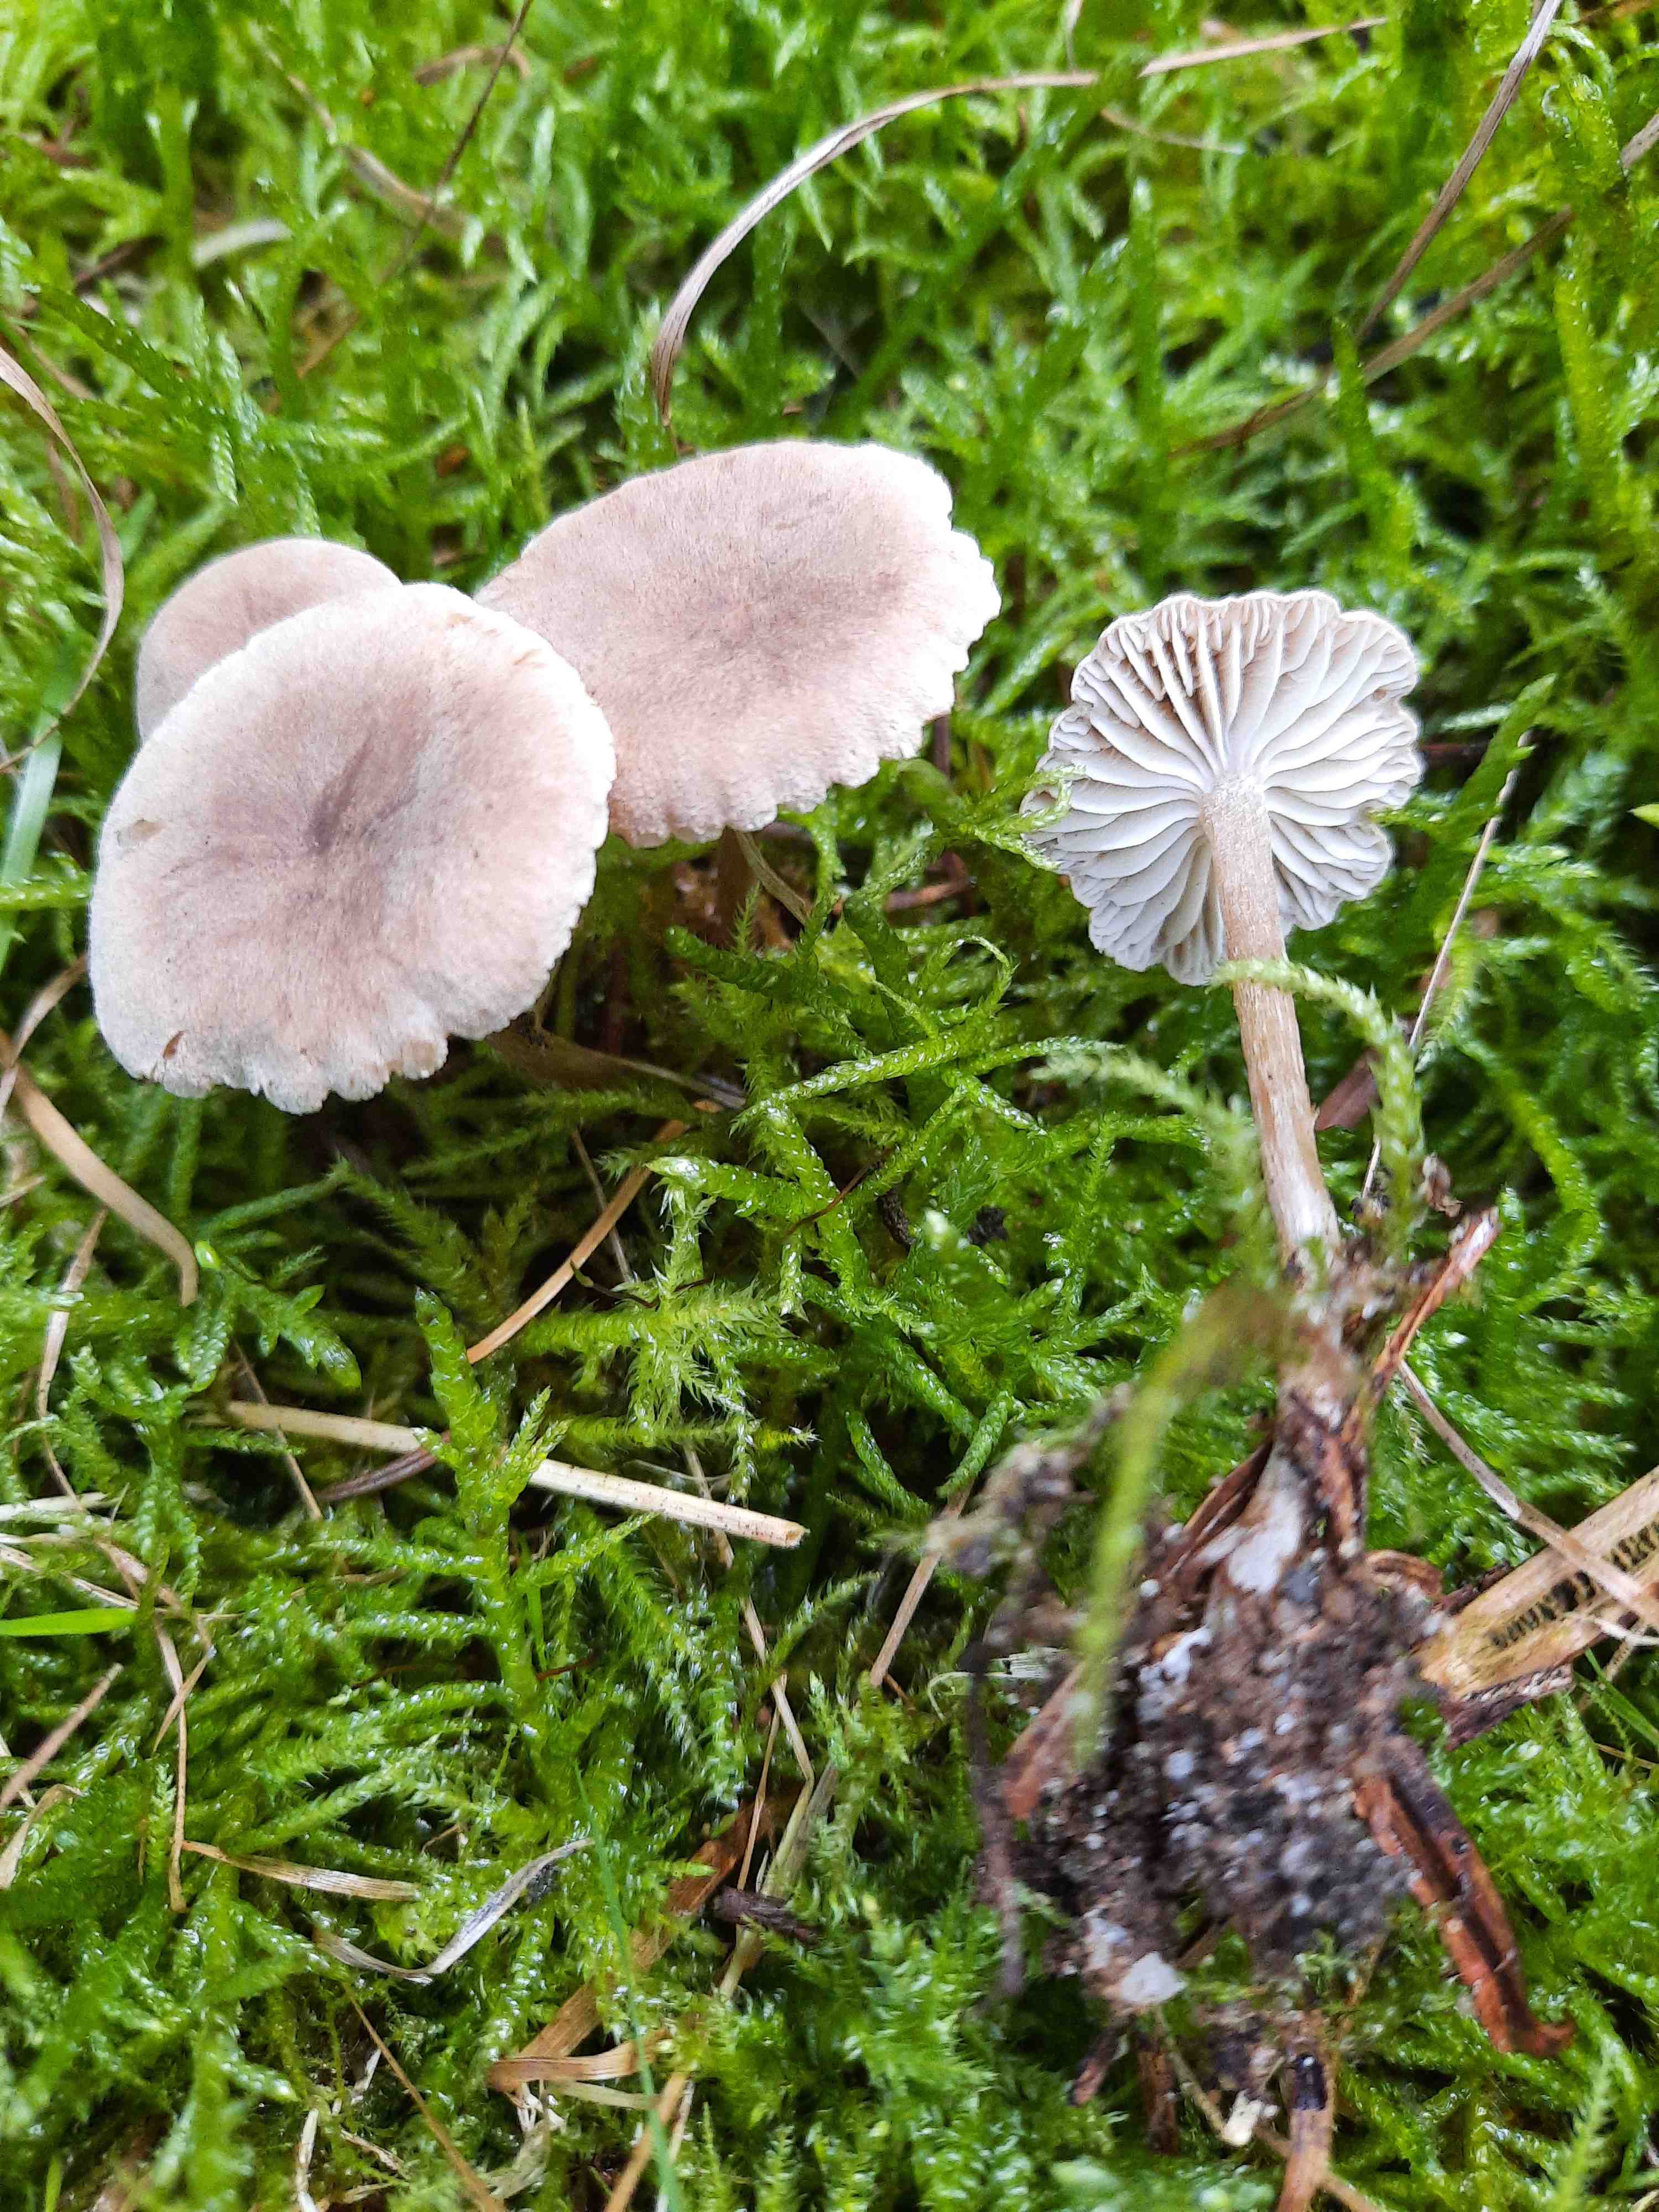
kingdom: Fungi
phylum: Basidiomycota
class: Agaricomycetes
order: Agaricales
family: Callistosporiaceae
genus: Pseudolaccaria
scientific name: Pseudolaccaria pachyphylla
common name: hvælvet tykblad
